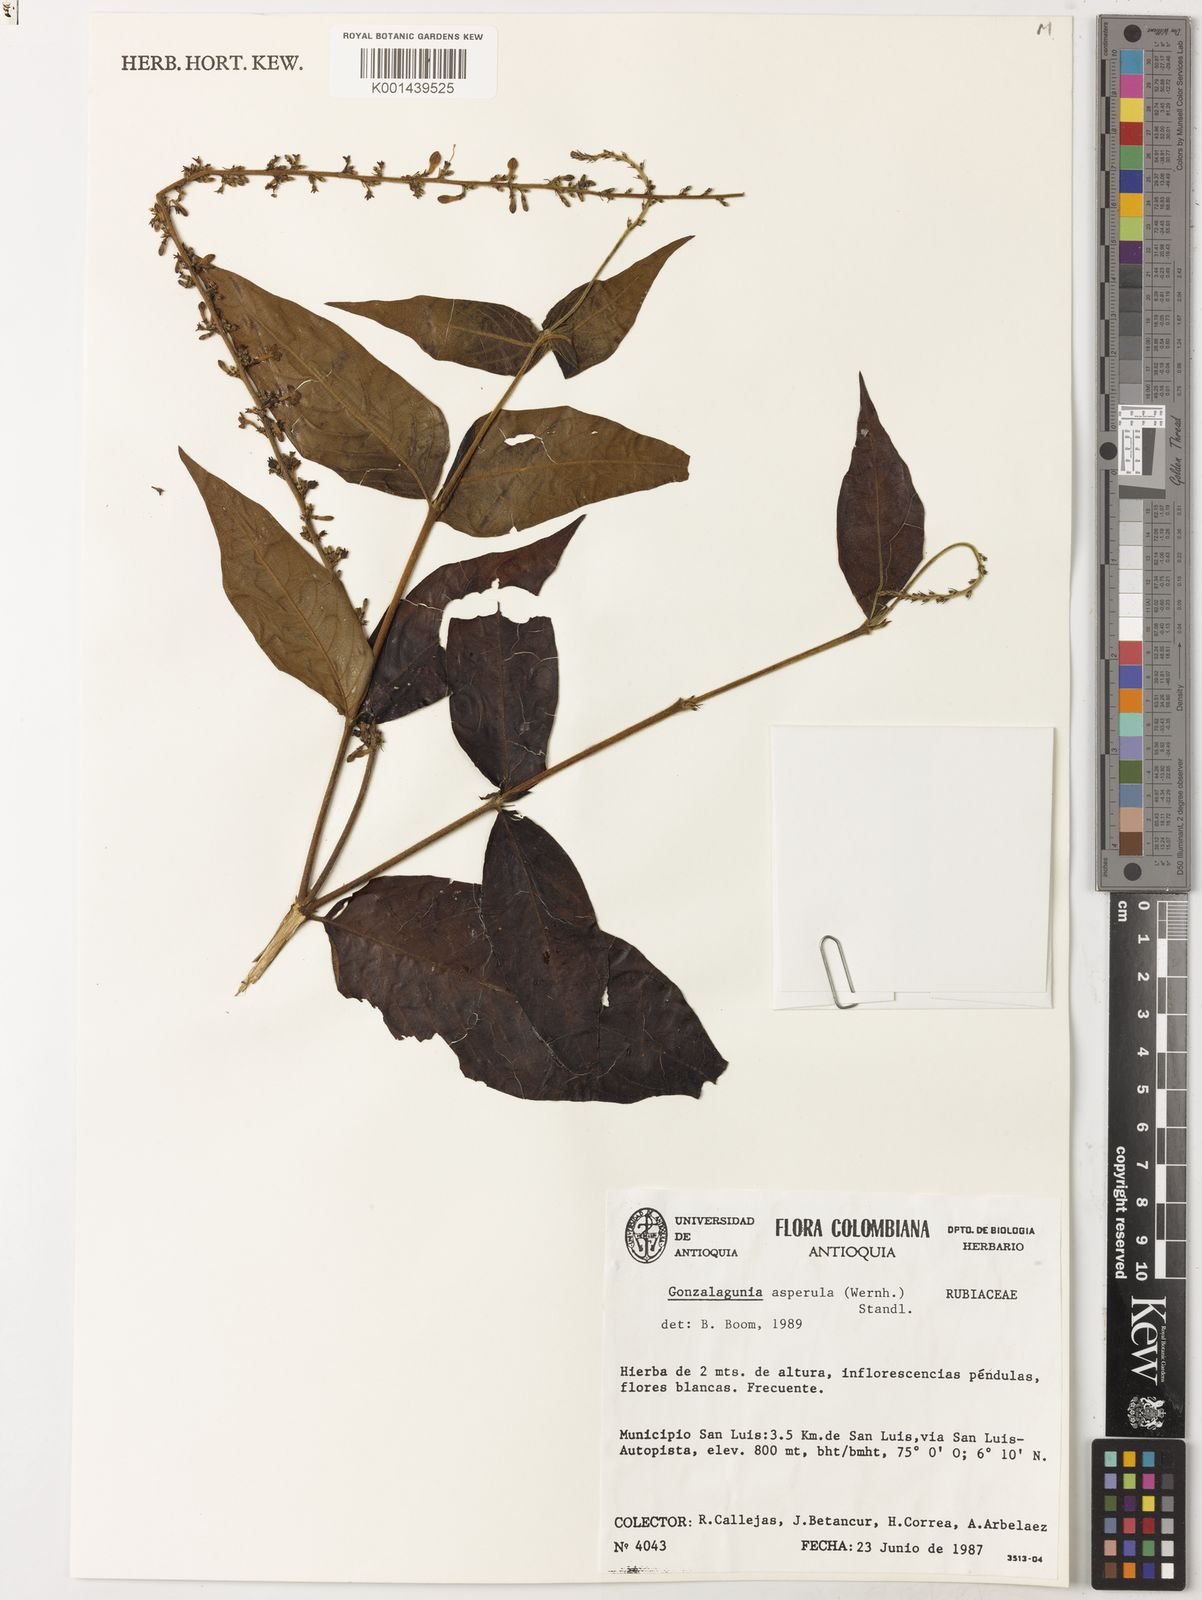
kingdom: Plantae
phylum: Tracheophyta
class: Magnoliopsida
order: Gentianales
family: Rubiaceae
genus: Gonzalagunia
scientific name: Gonzalagunia asperula
